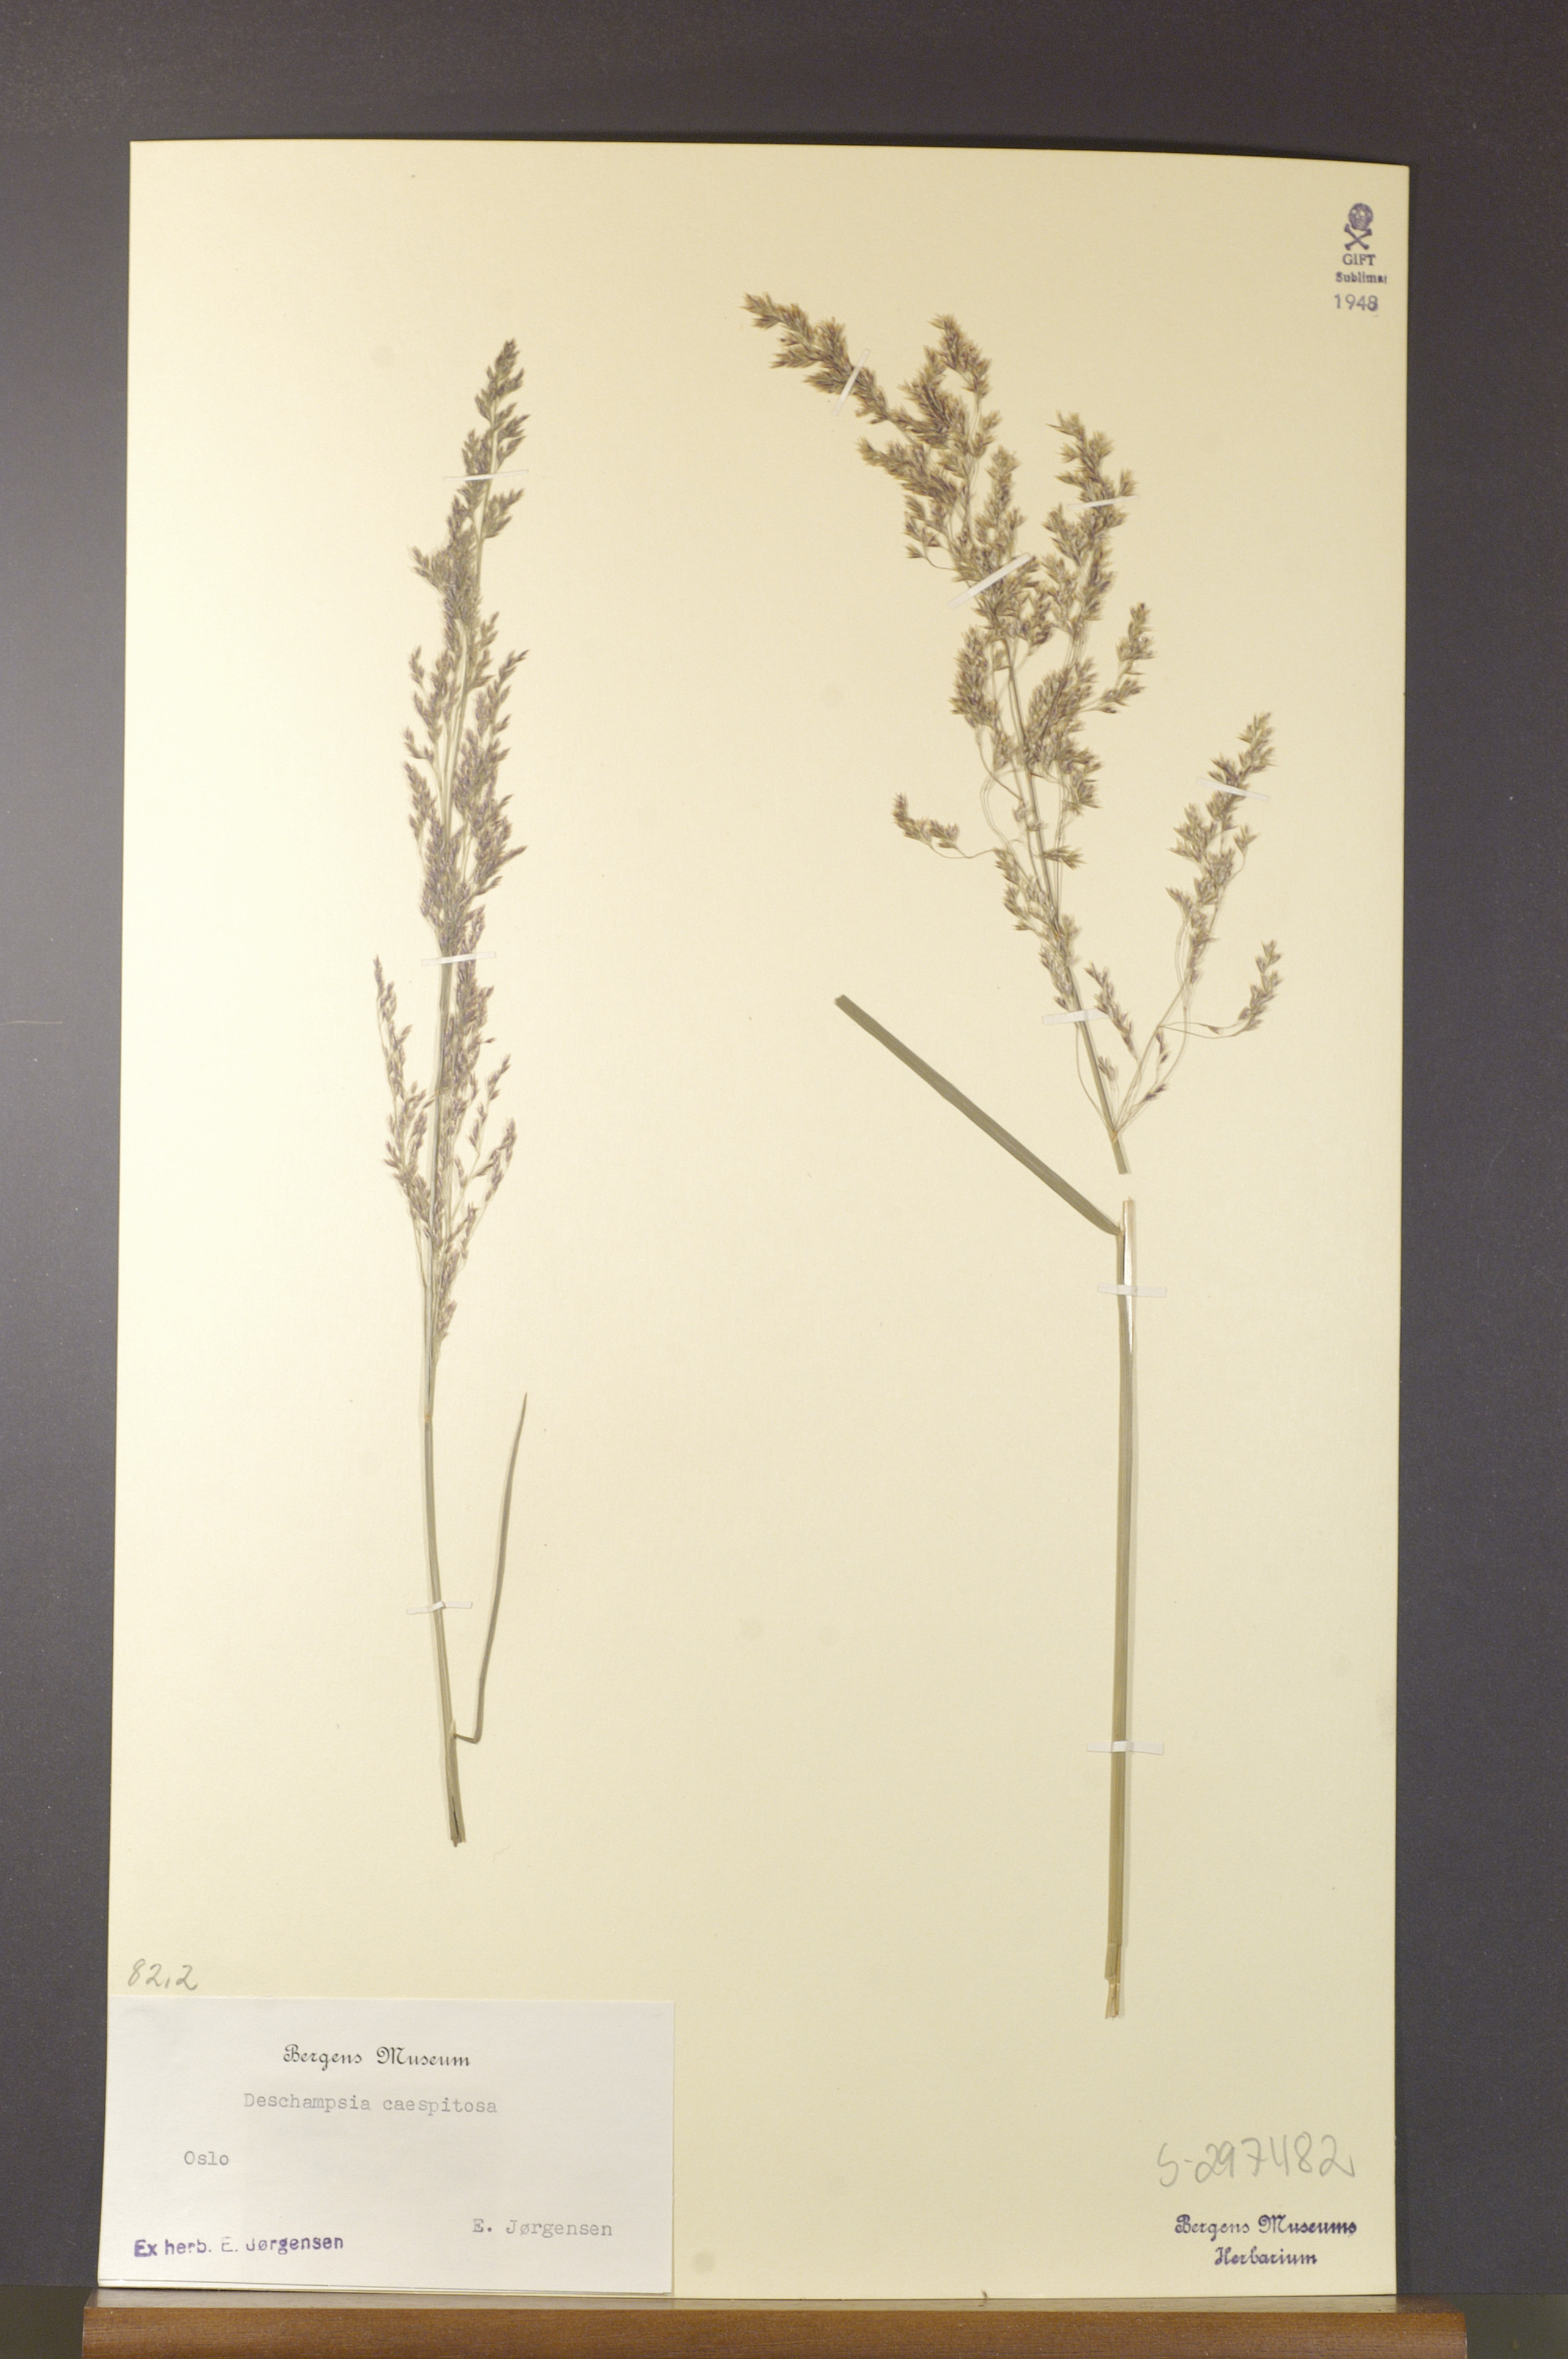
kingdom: Plantae
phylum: Tracheophyta
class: Liliopsida
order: Poales
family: Poaceae
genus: Deschampsia
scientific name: Deschampsia cespitosa
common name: Tufted hair-grass
